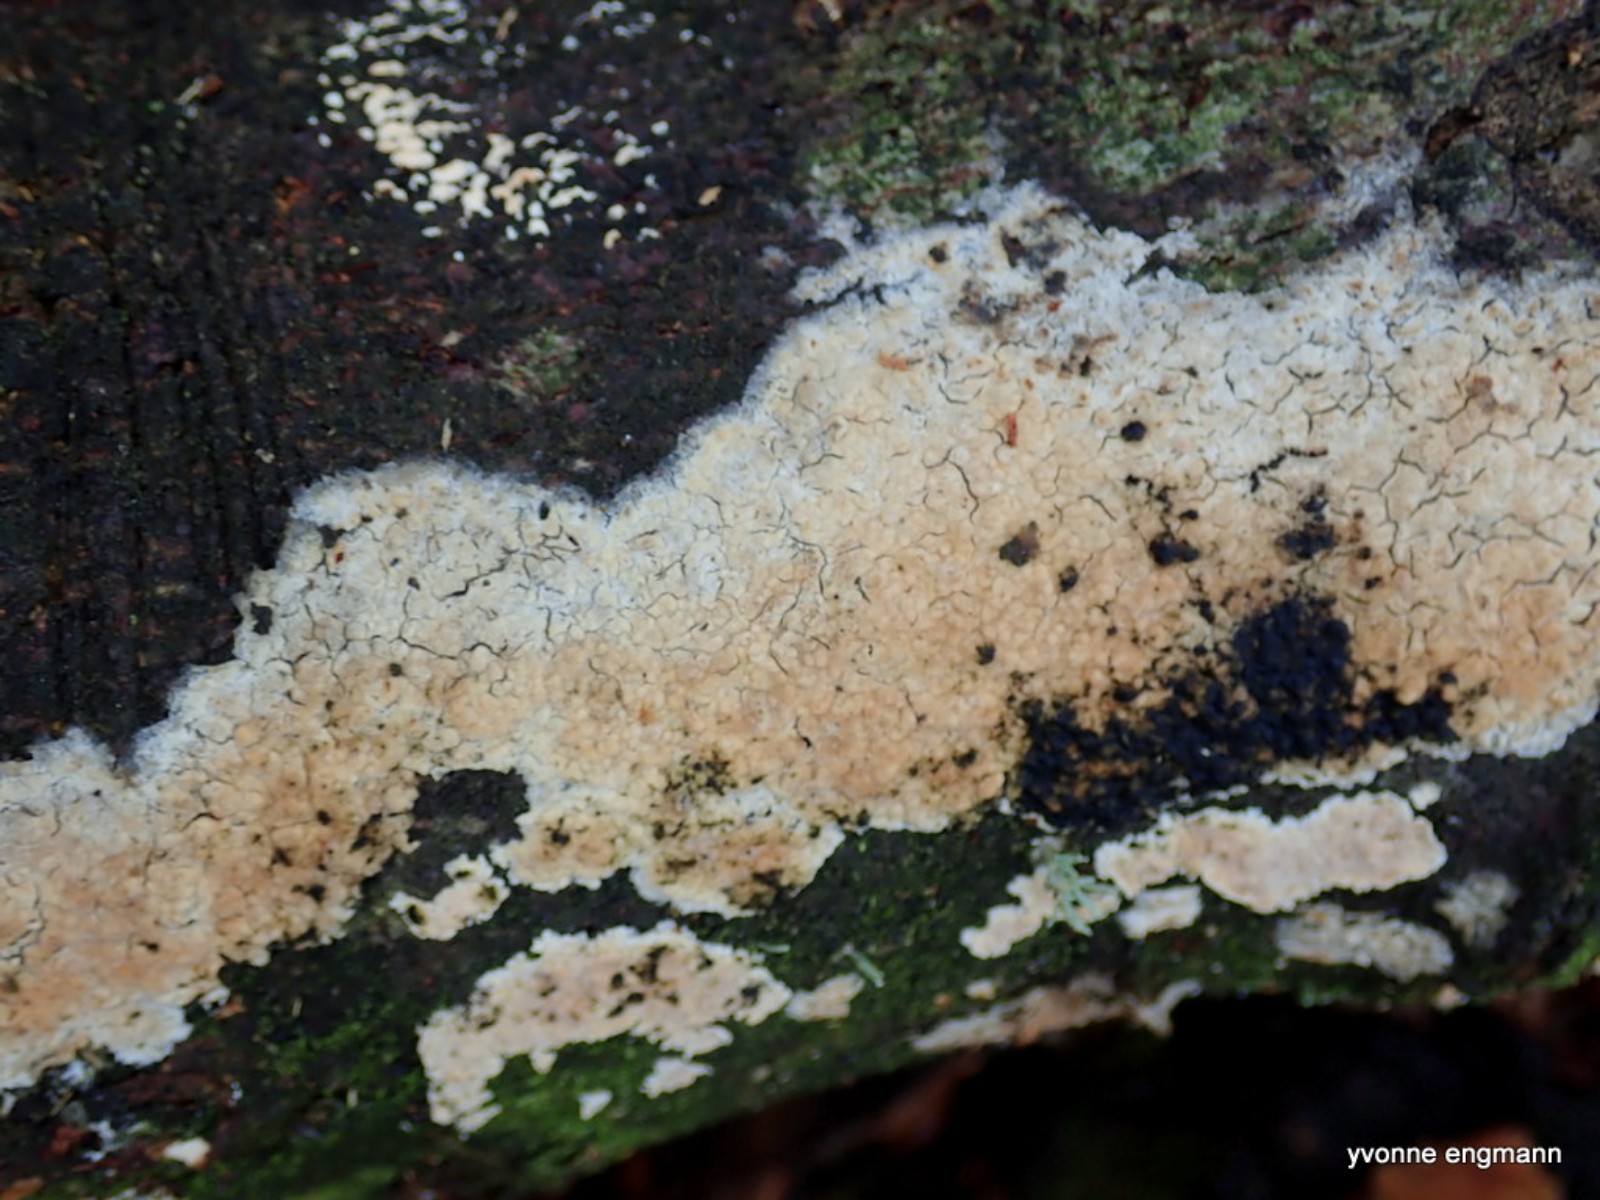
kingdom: Fungi
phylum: Basidiomycota
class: Agaricomycetes
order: Agaricales
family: Physalacriaceae
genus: Cylindrobasidium
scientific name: Cylindrobasidium evolvens
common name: sprækkehinde
